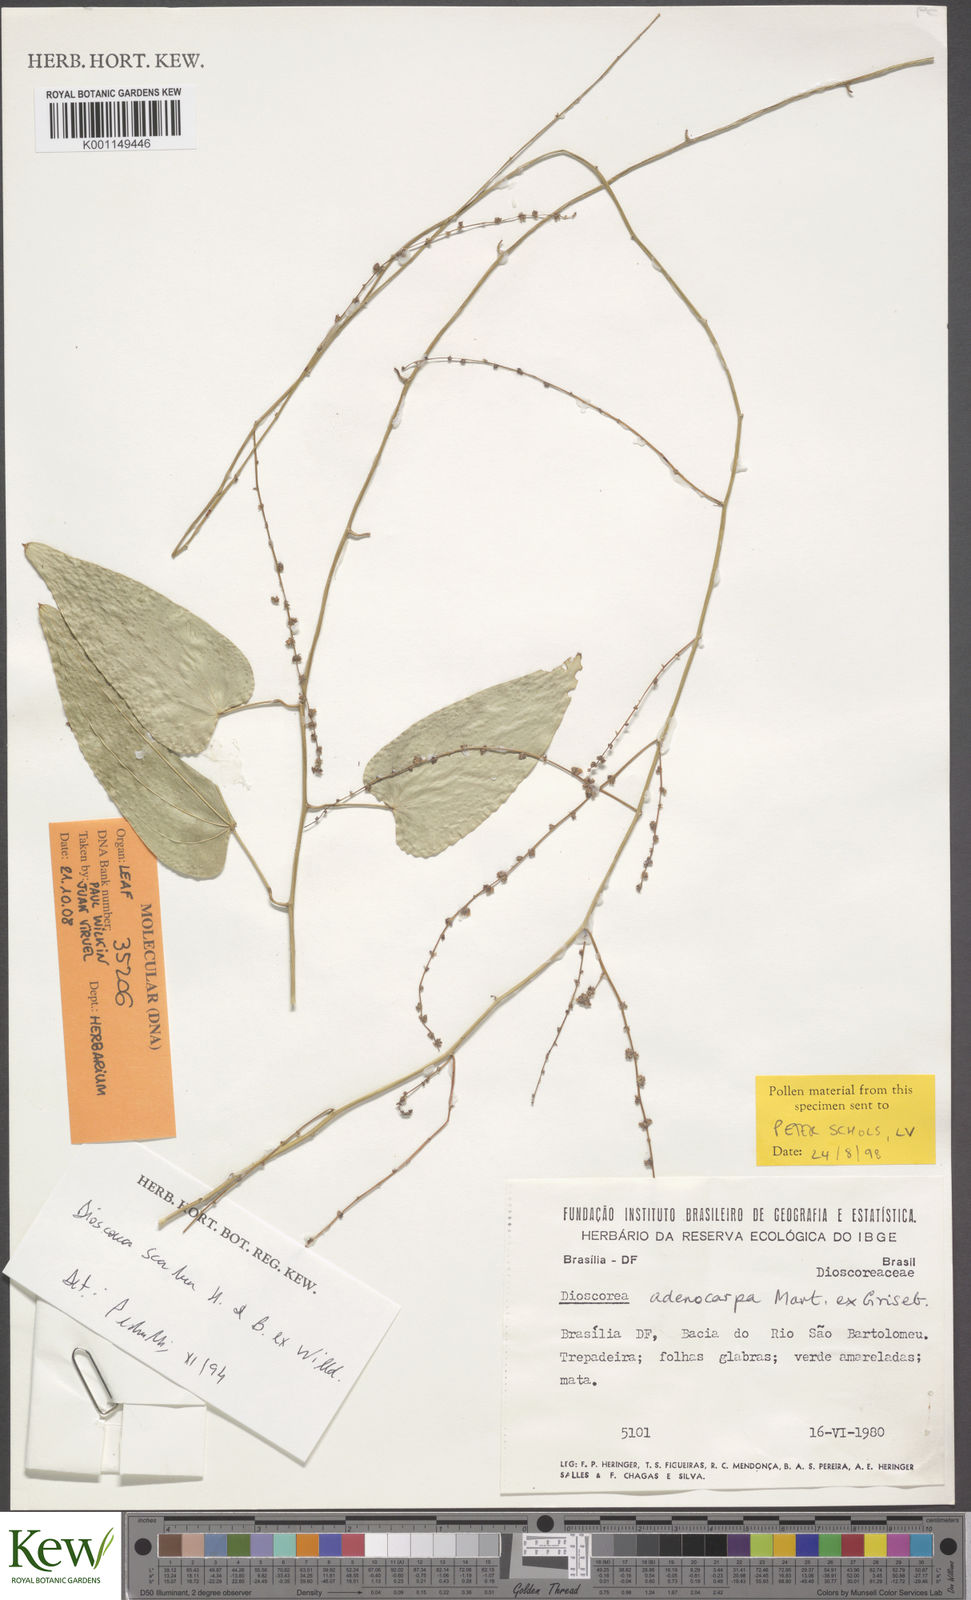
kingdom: Plantae
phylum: Tracheophyta
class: Liliopsida
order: Dioscoreales
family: Dioscoreaceae
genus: Dioscorea
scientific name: Dioscorea scabra
